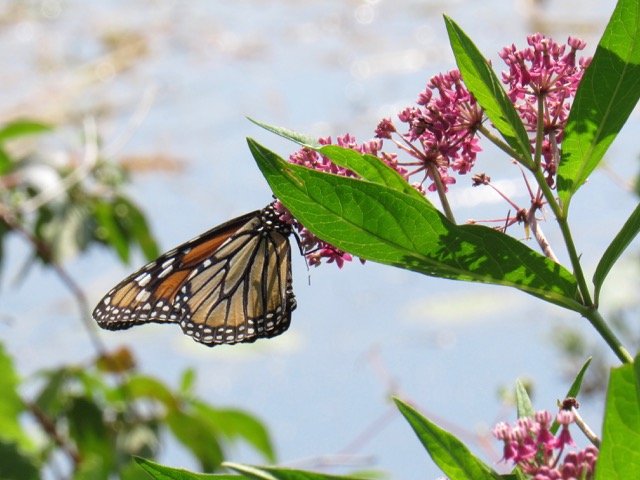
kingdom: Animalia
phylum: Arthropoda
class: Insecta
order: Lepidoptera
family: Nymphalidae
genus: Danaus
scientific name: Danaus plexippus
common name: Monarch
